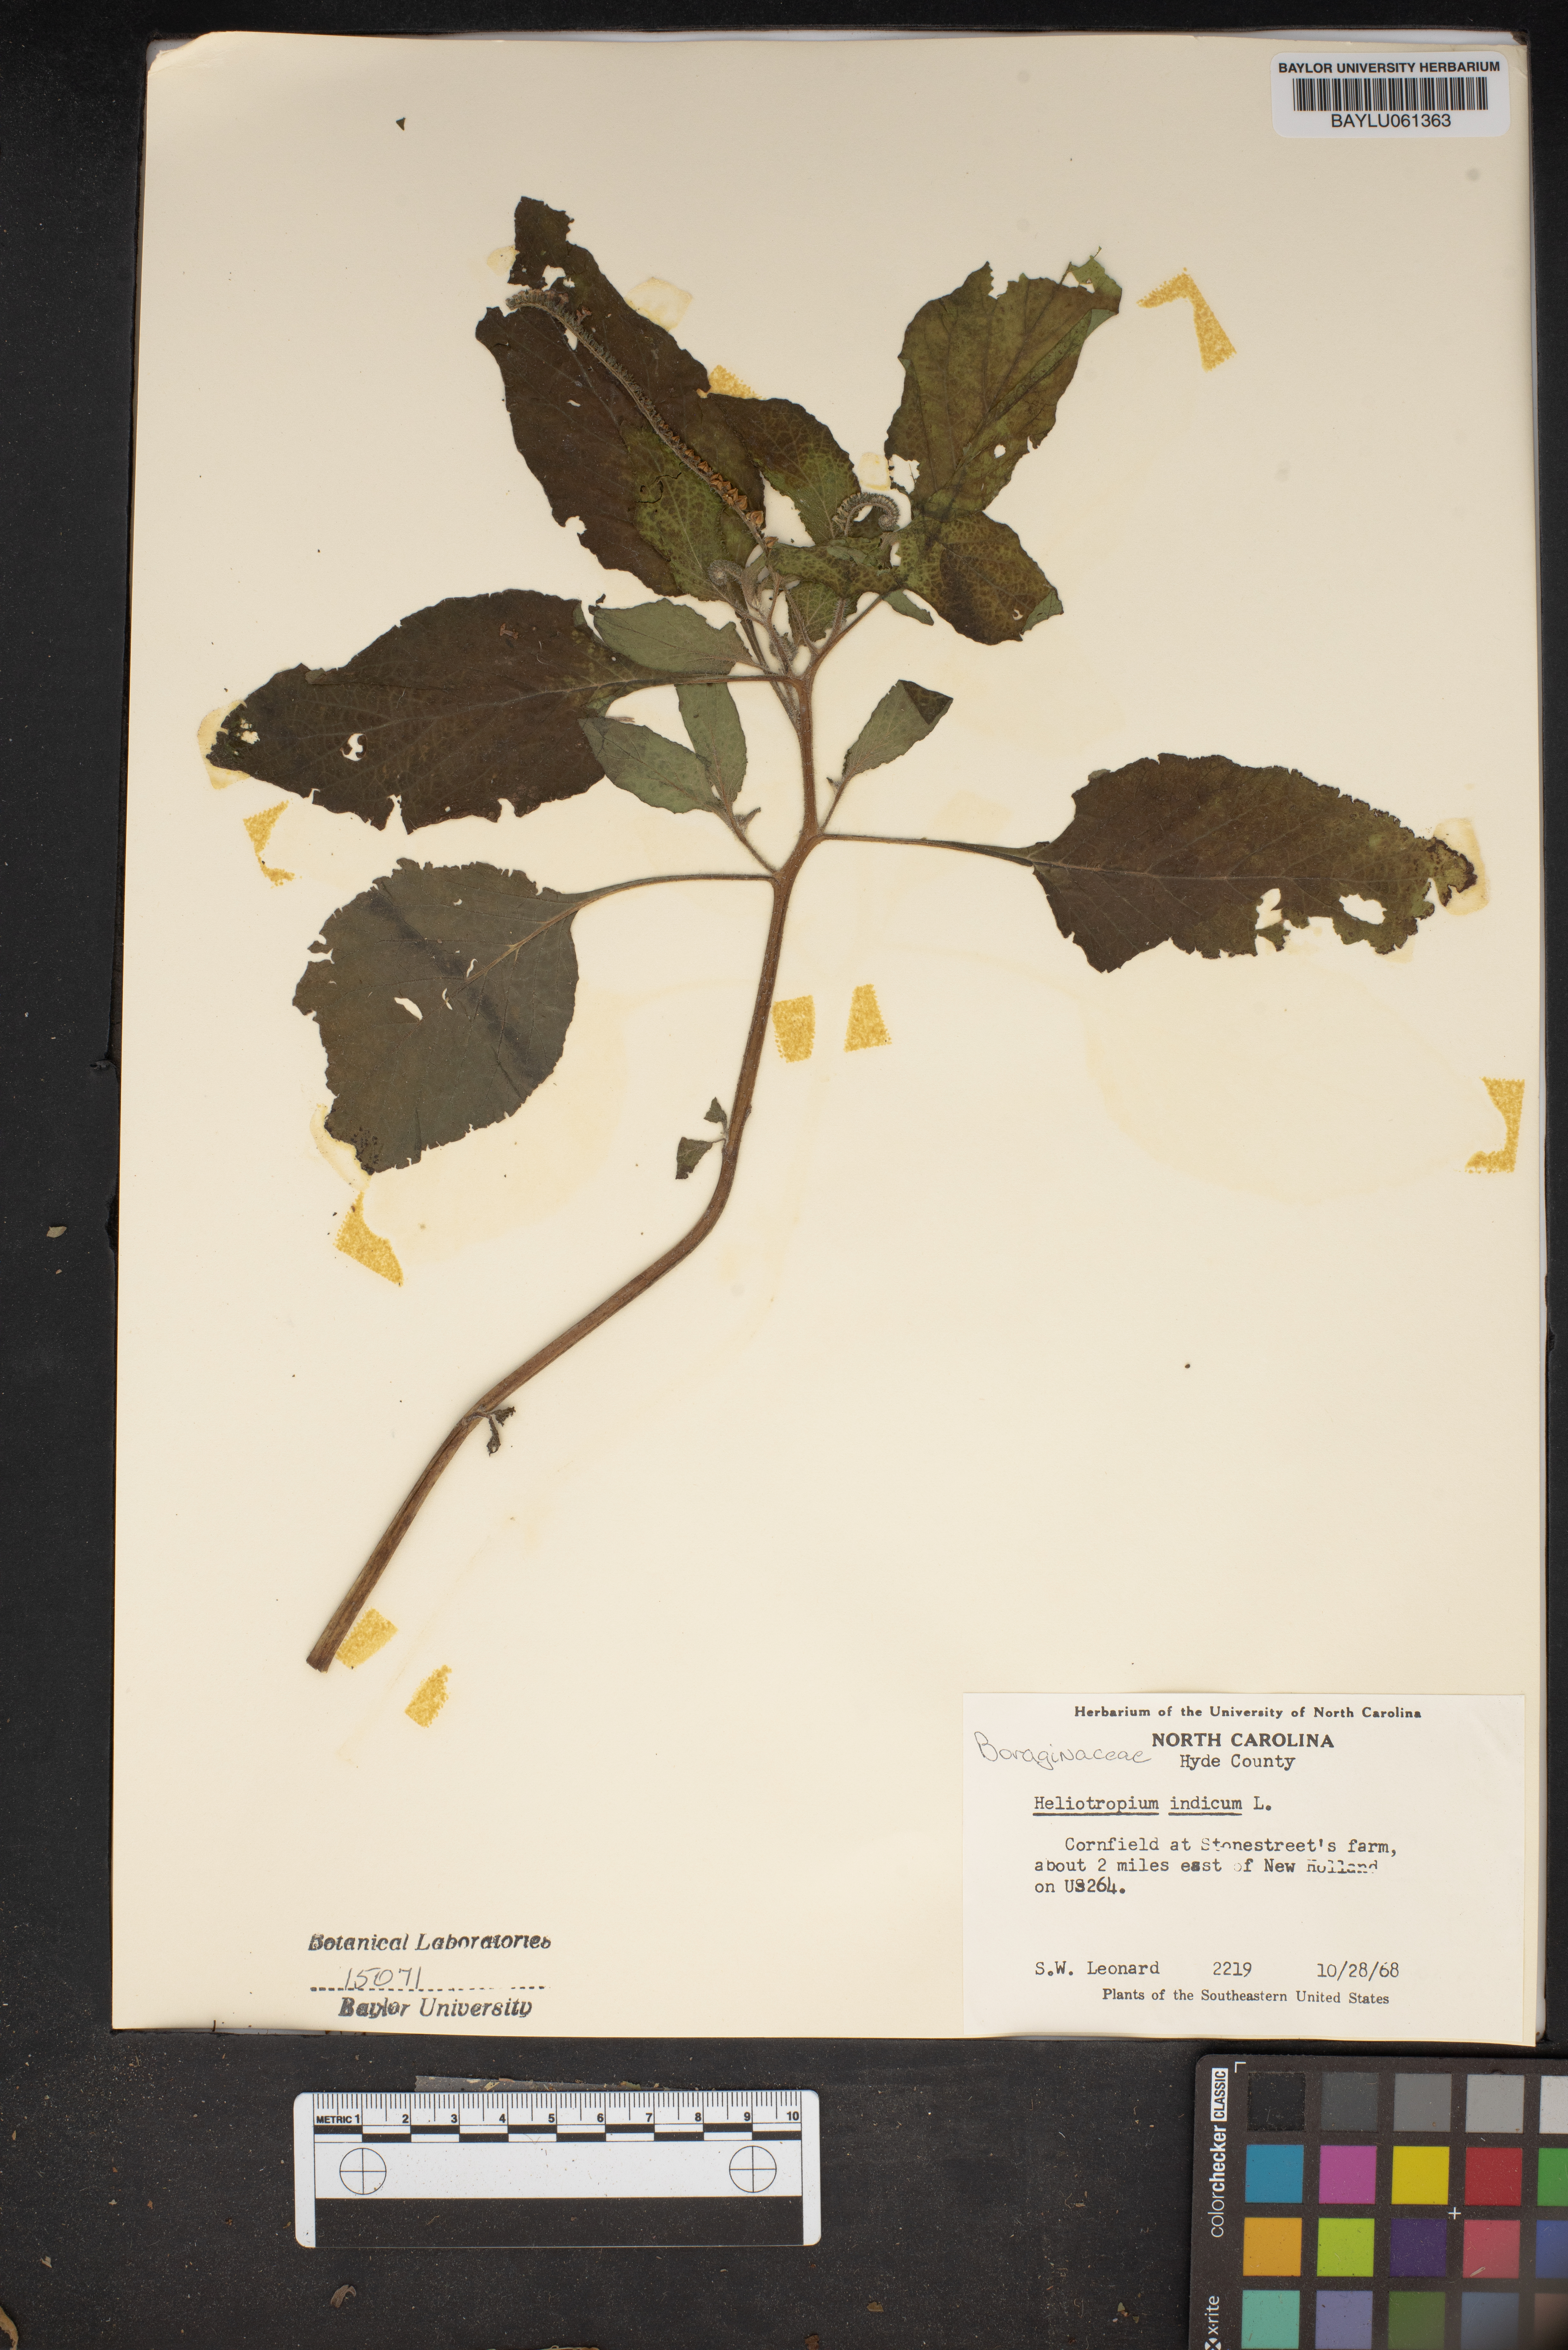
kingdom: Plantae
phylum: Tracheophyta
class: Magnoliopsida
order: Boraginales
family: Heliotropiaceae
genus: Heliotropium
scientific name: Heliotropium indicum
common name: Indian heliotrope
